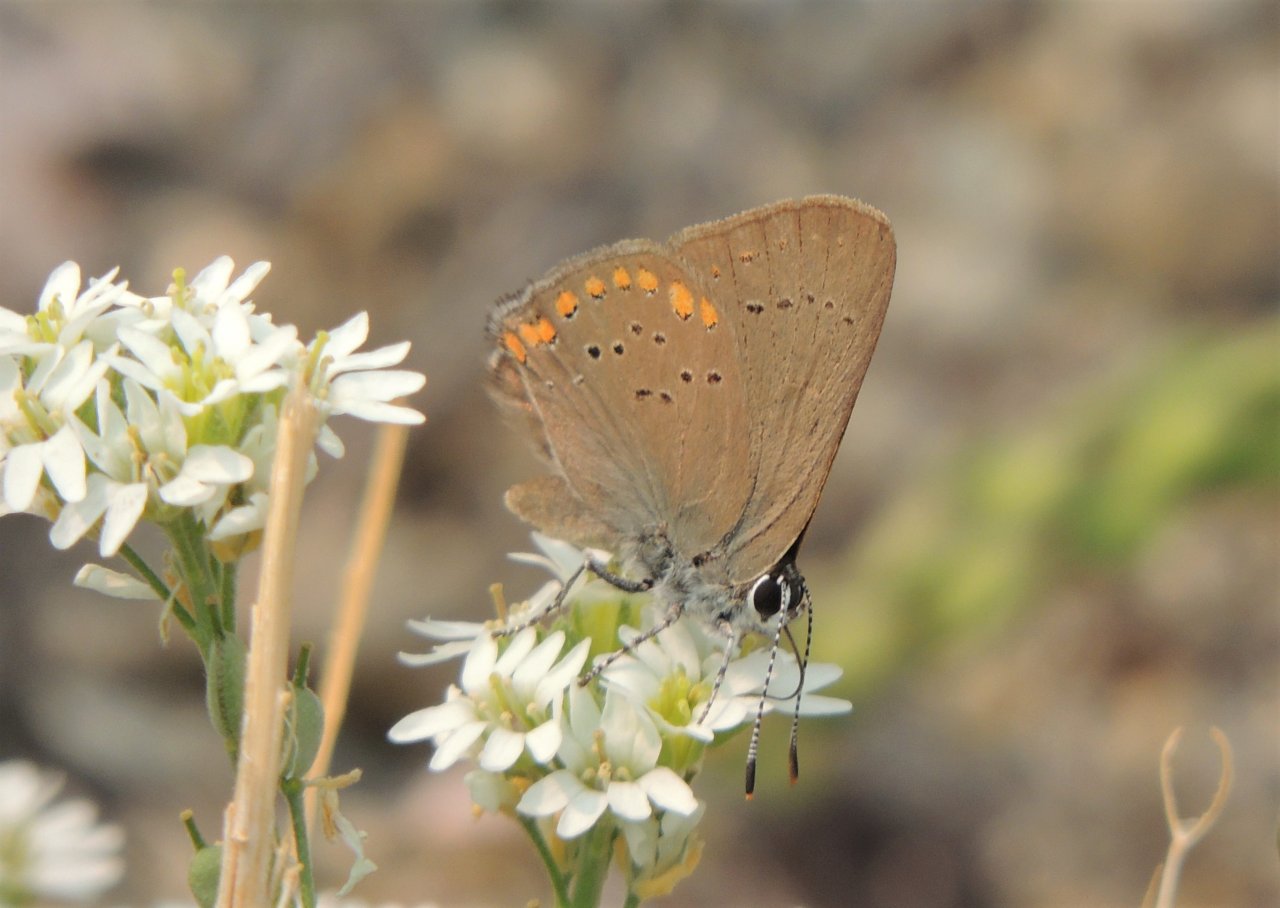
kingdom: Animalia
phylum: Arthropoda
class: Insecta
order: Lepidoptera
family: Lycaenidae
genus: Harkenclenus
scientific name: Harkenclenus titus
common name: Coral Hairstreak
